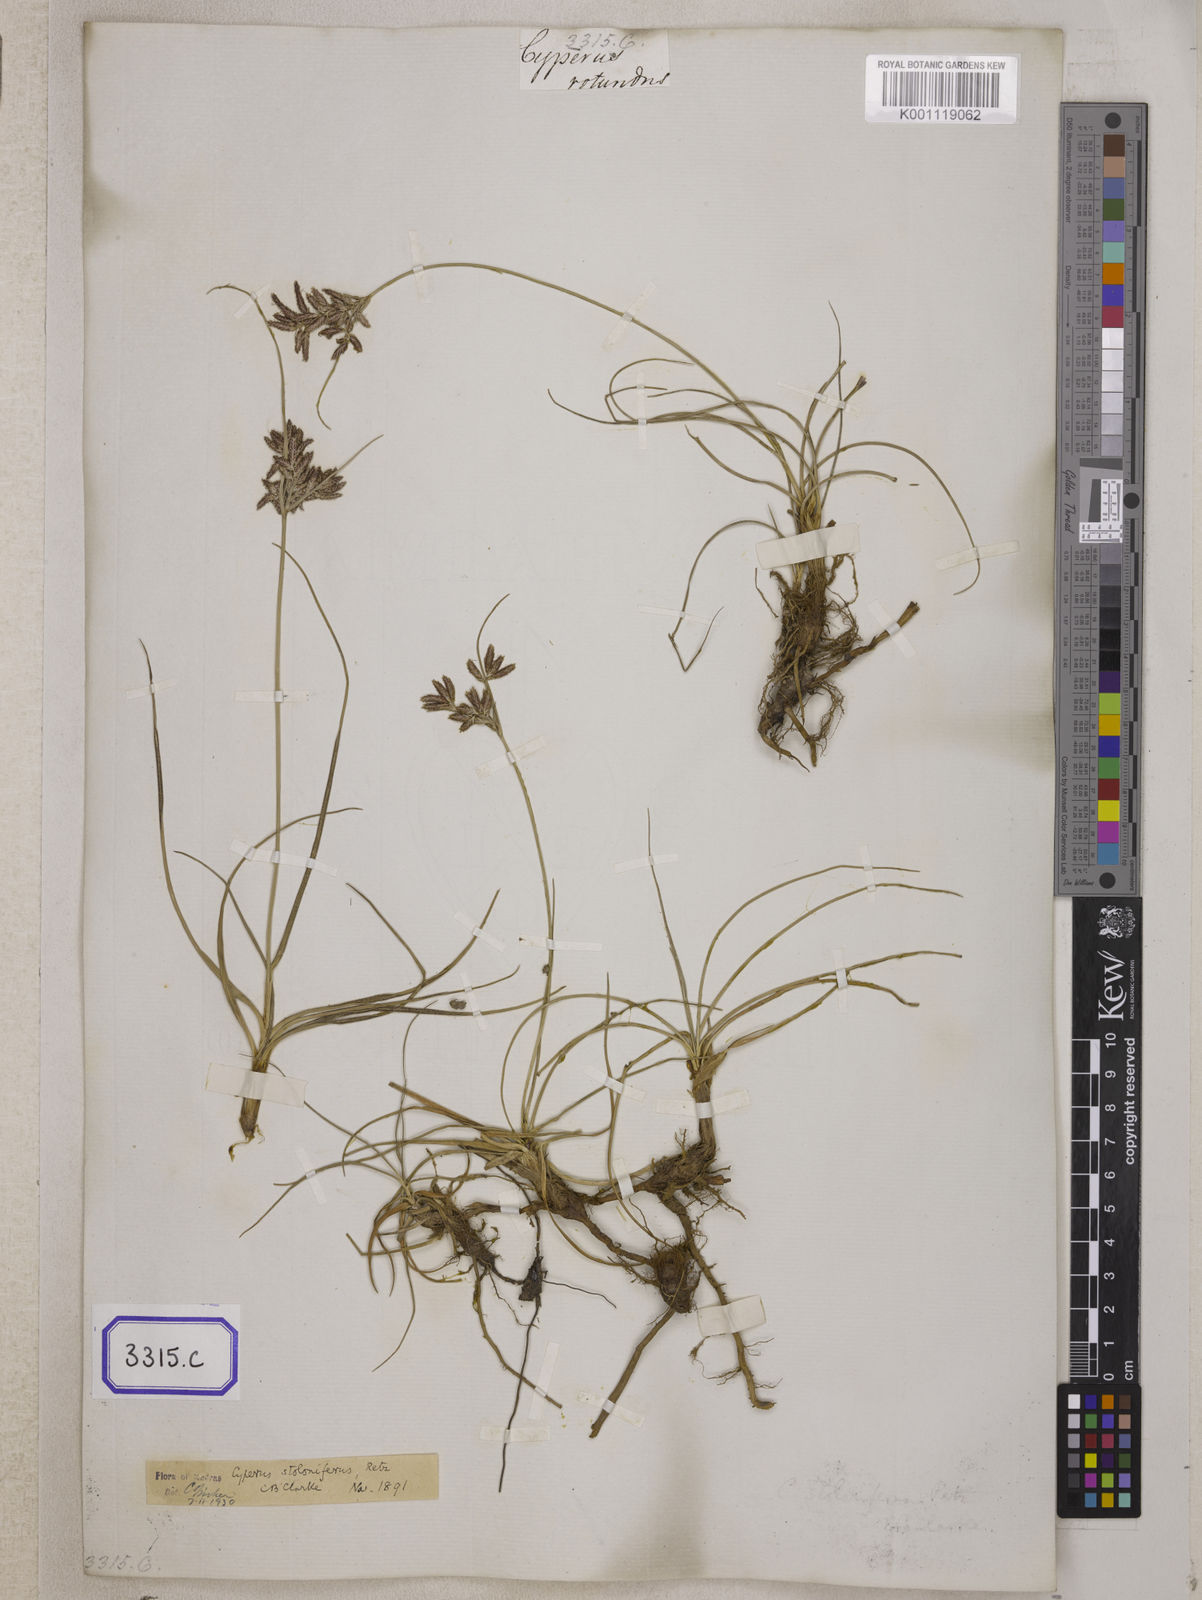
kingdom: Plantae
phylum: Tracheophyta
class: Liliopsida
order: Poales
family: Cyperaceae
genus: Cyperus
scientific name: Cyperus
